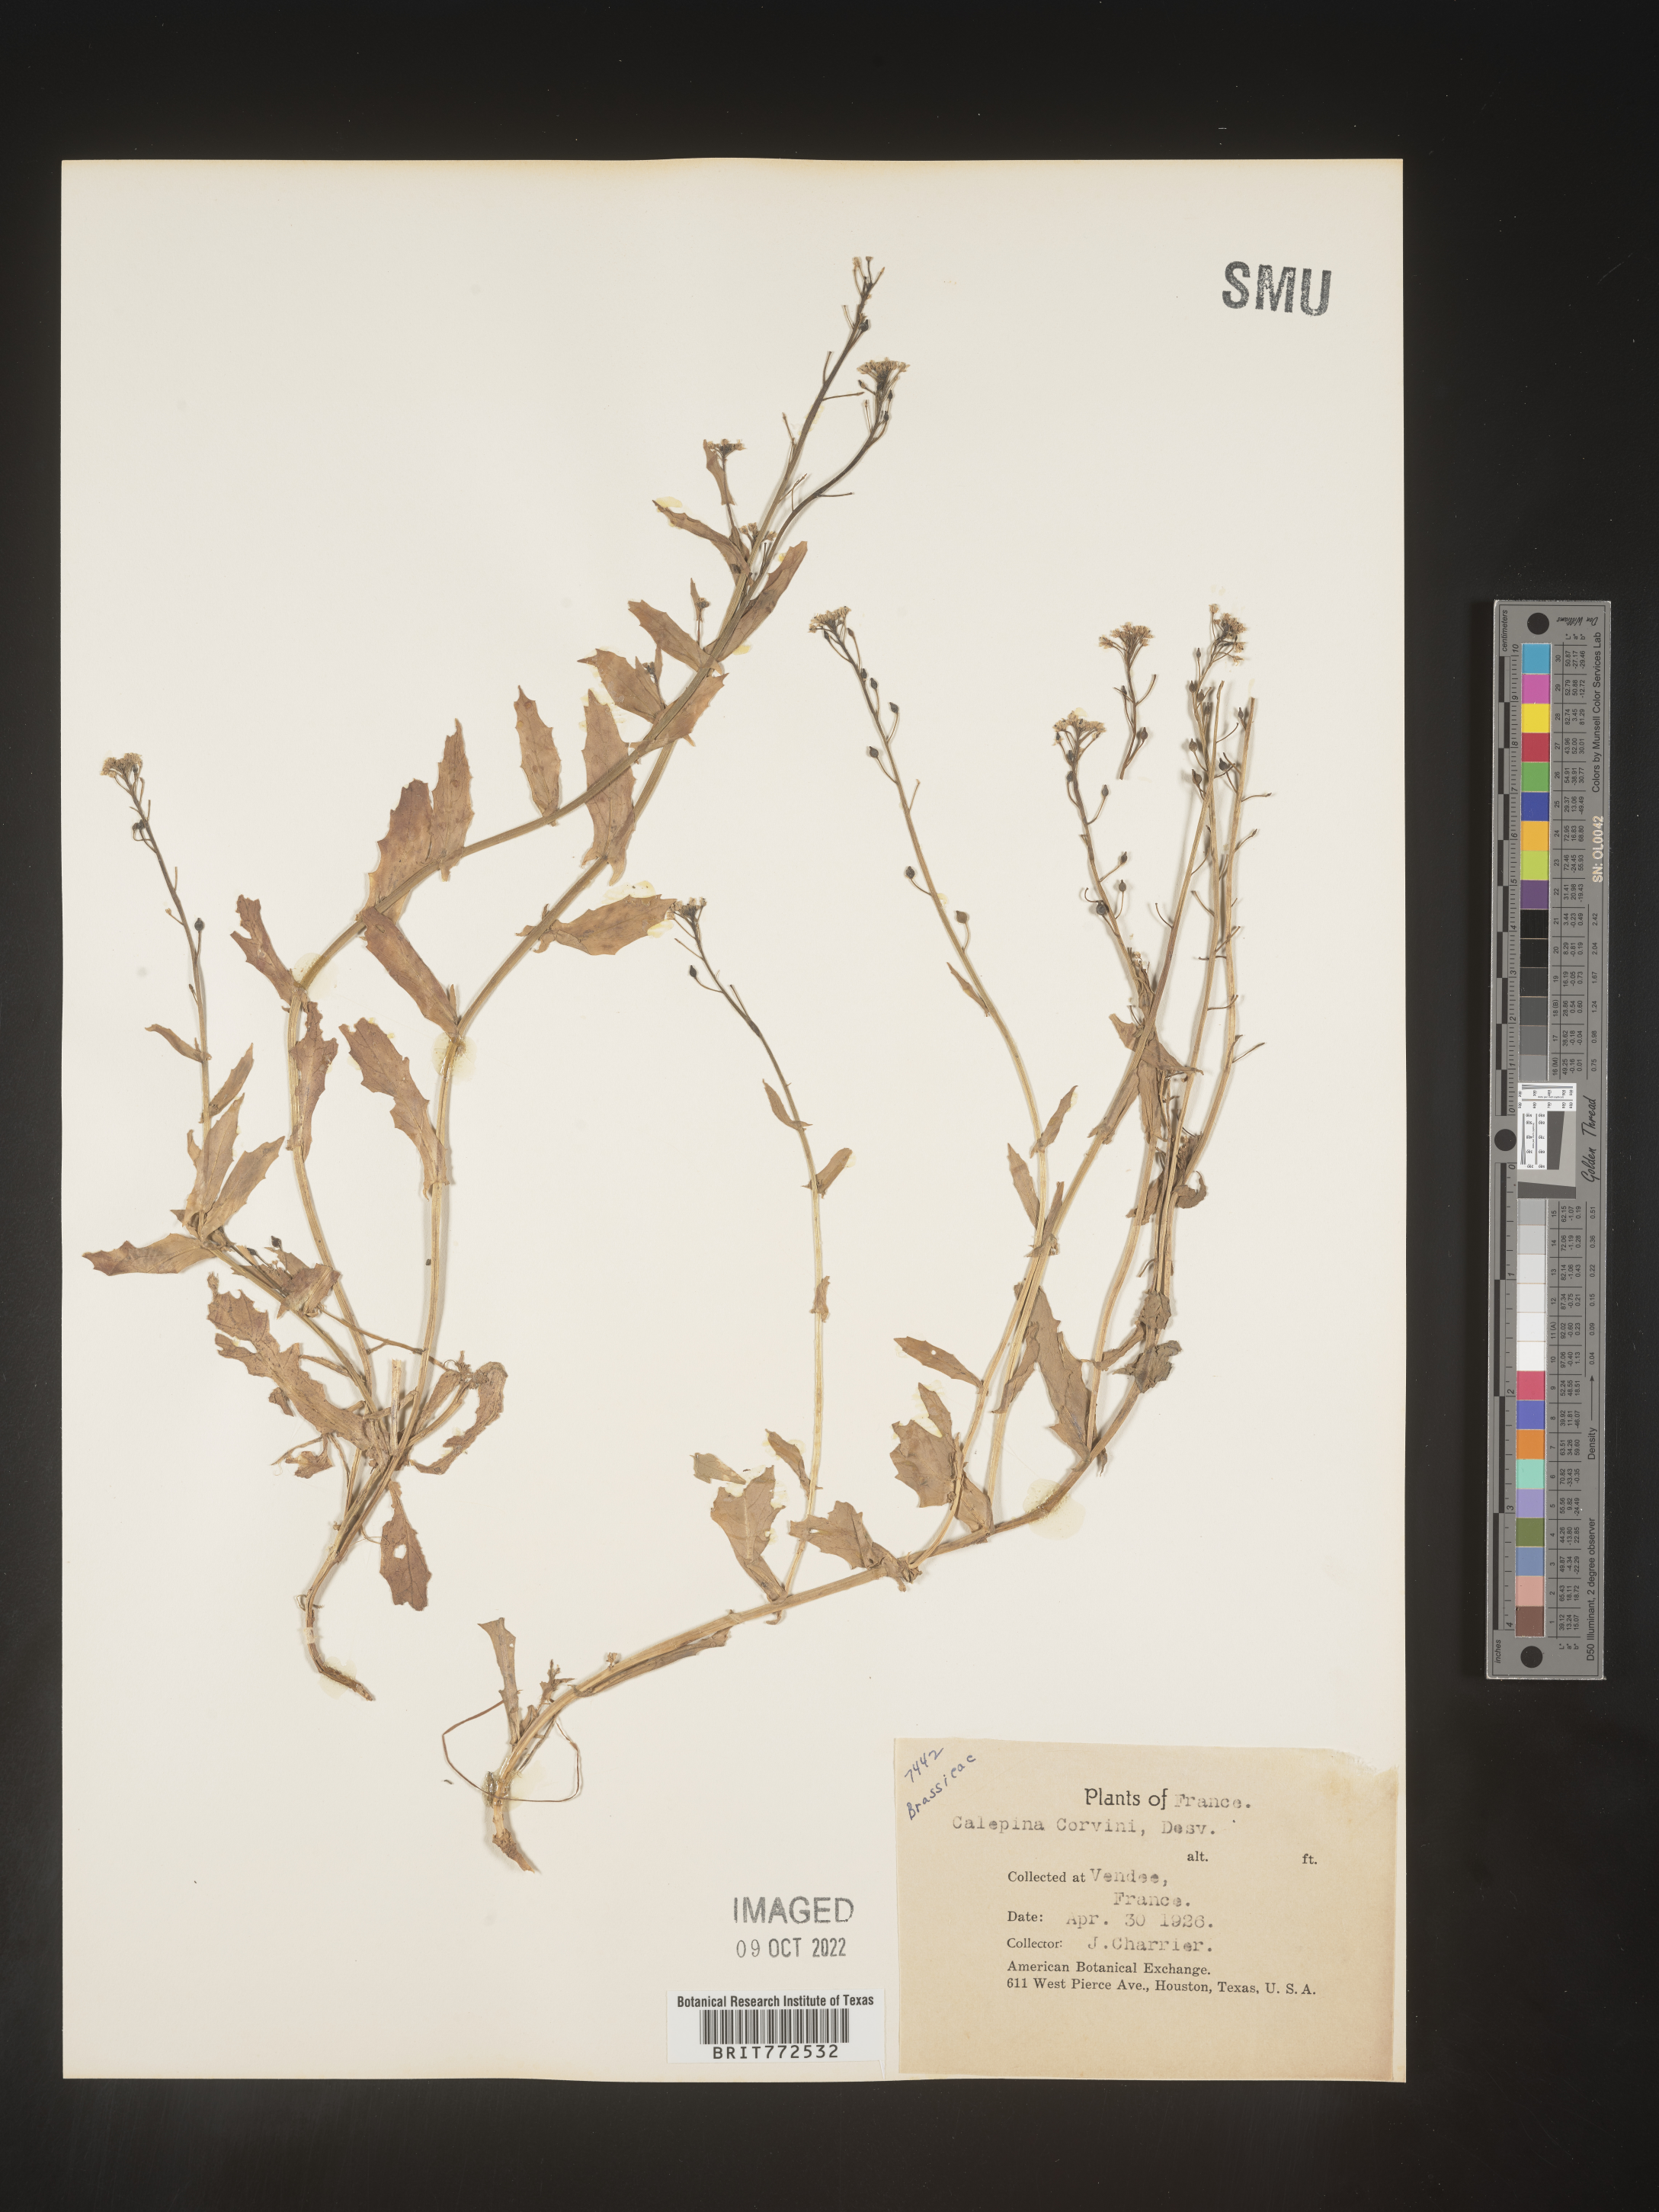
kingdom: Plantae
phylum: Tracheophyta
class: Magnoliopsida
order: Brassicales
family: Brassicaceae
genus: Calepina
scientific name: Calepina
